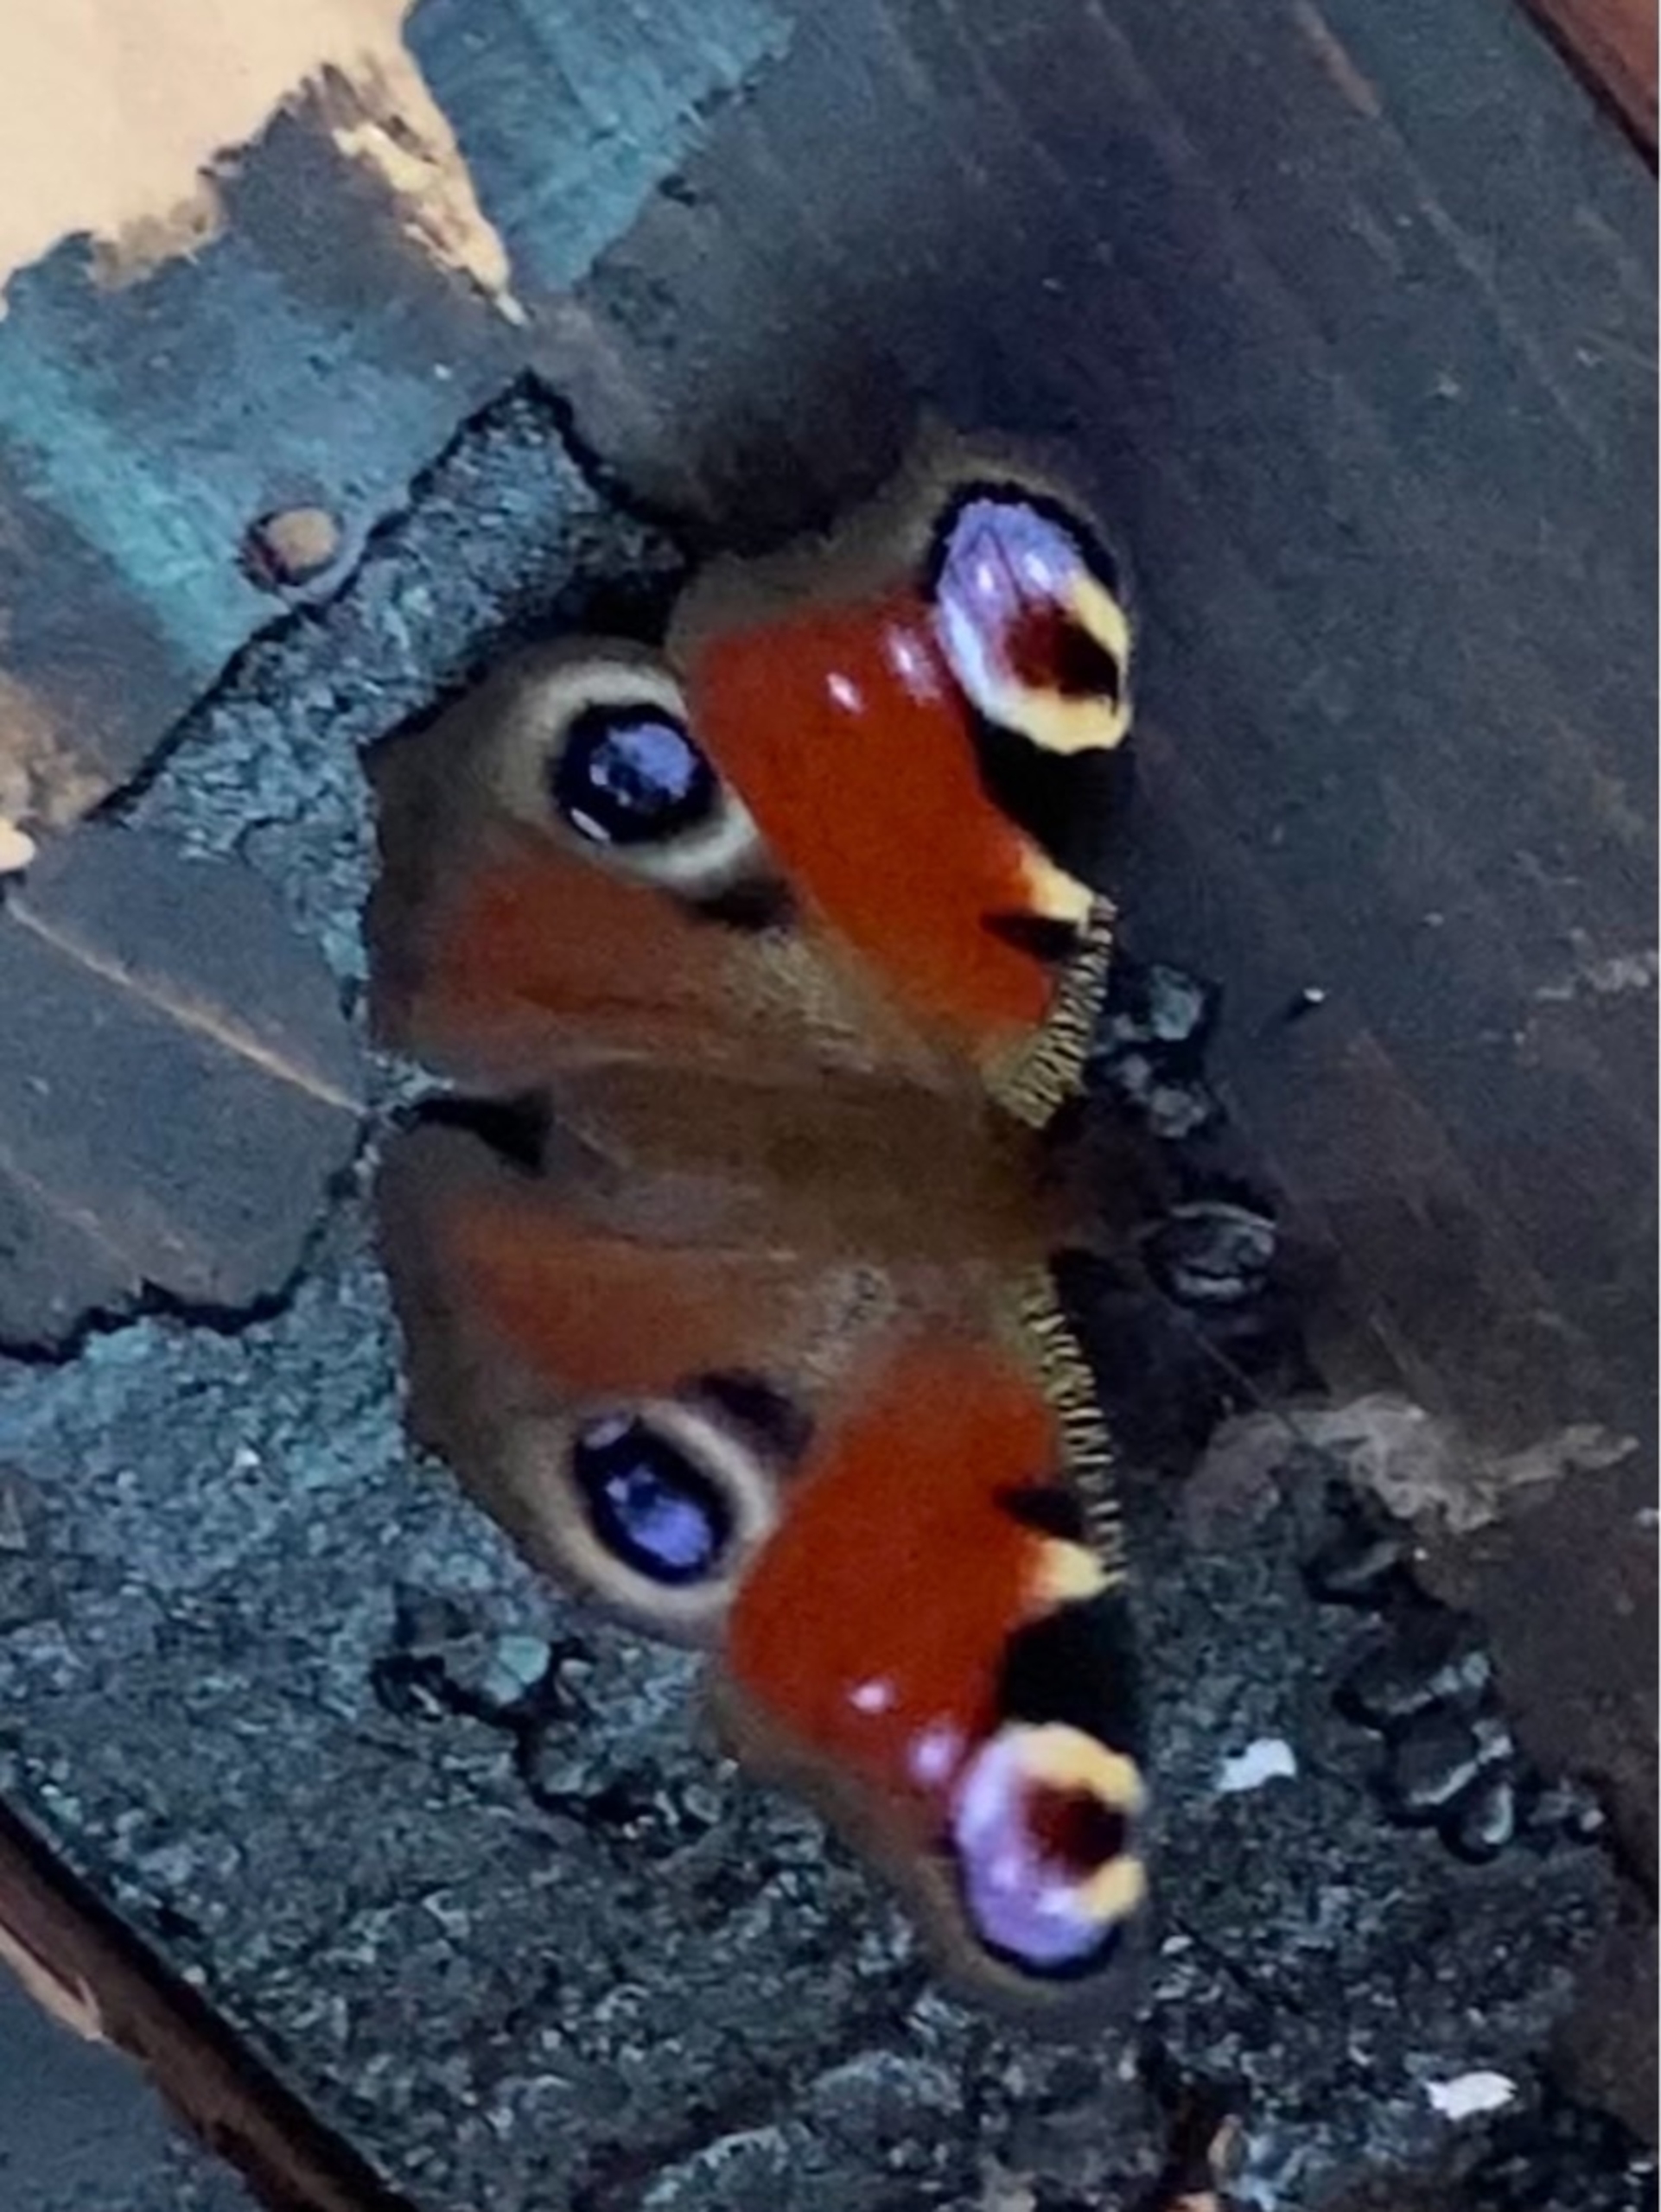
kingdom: Animalia
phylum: Arthropoda
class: Insecta
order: Lepidoptera
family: Nymphalidae
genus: Aglais
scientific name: Aglais io
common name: Dagpåfugleøje
